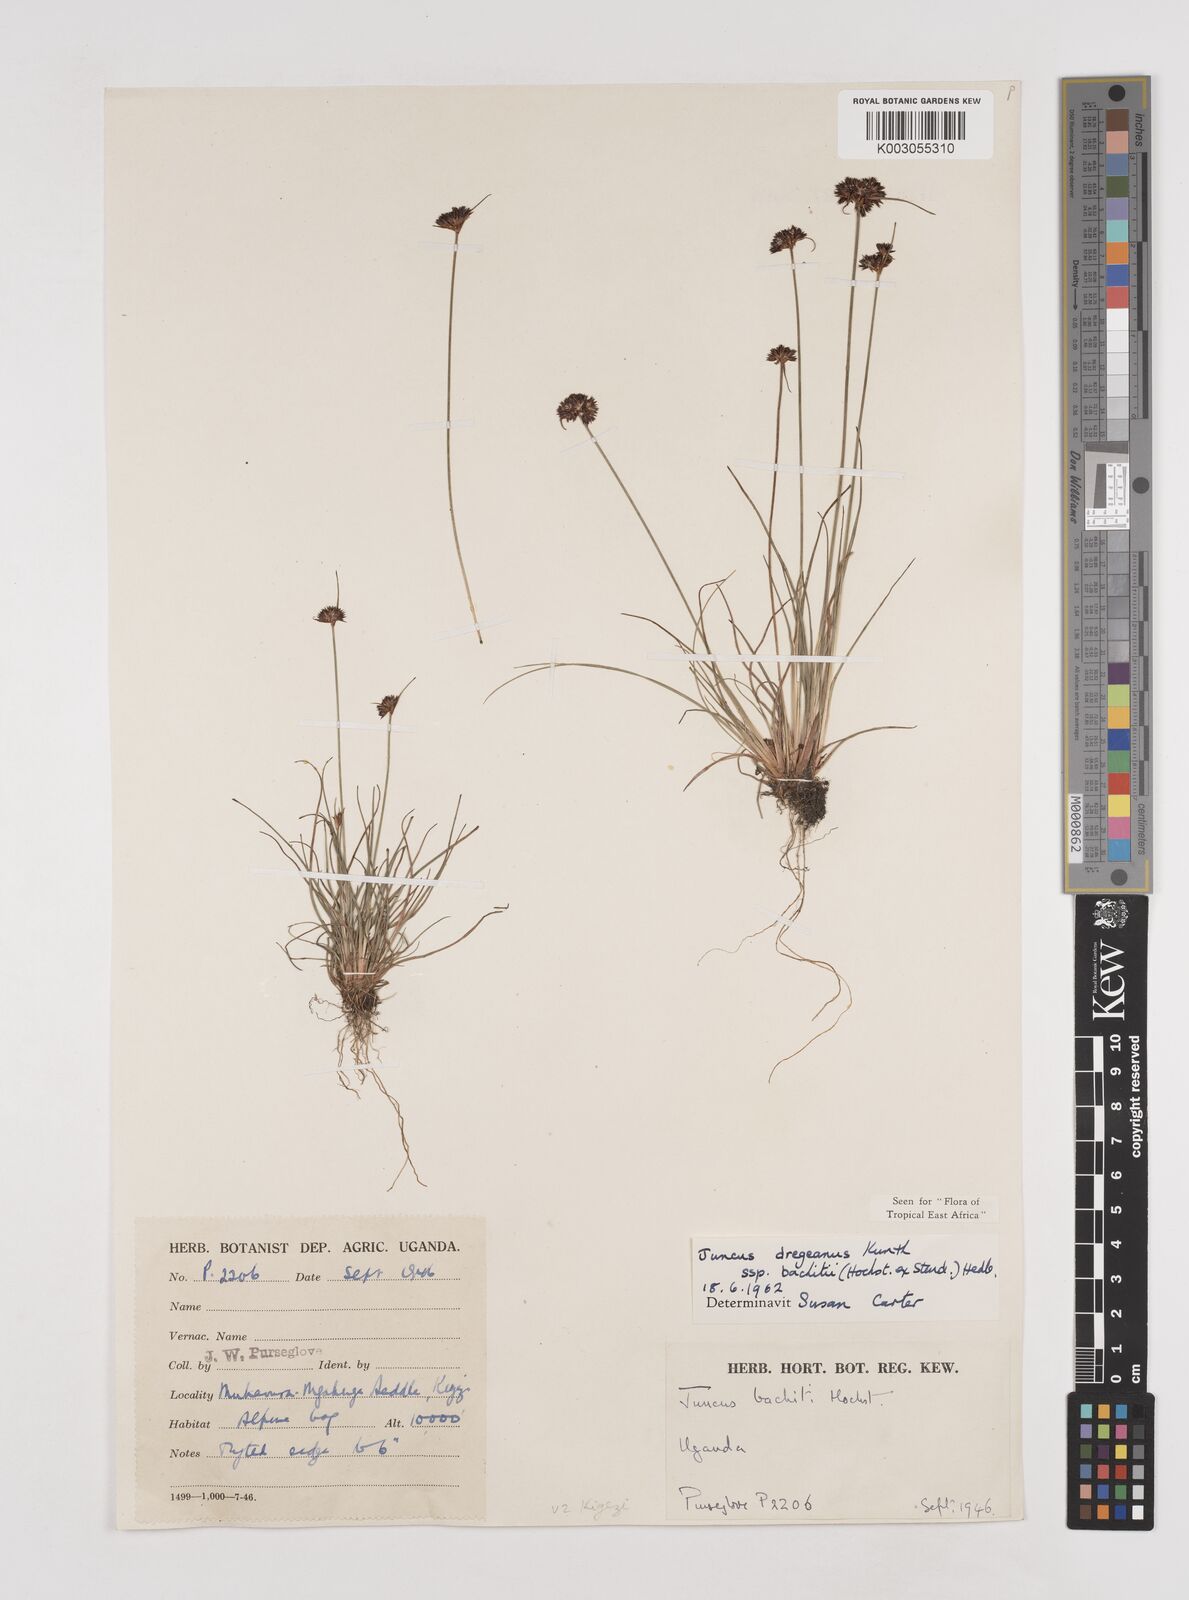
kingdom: Plantae
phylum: Tracheophyta
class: Liliopsida
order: Poales
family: Juncaceae
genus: Juncus
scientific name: Juncus dregeanus
